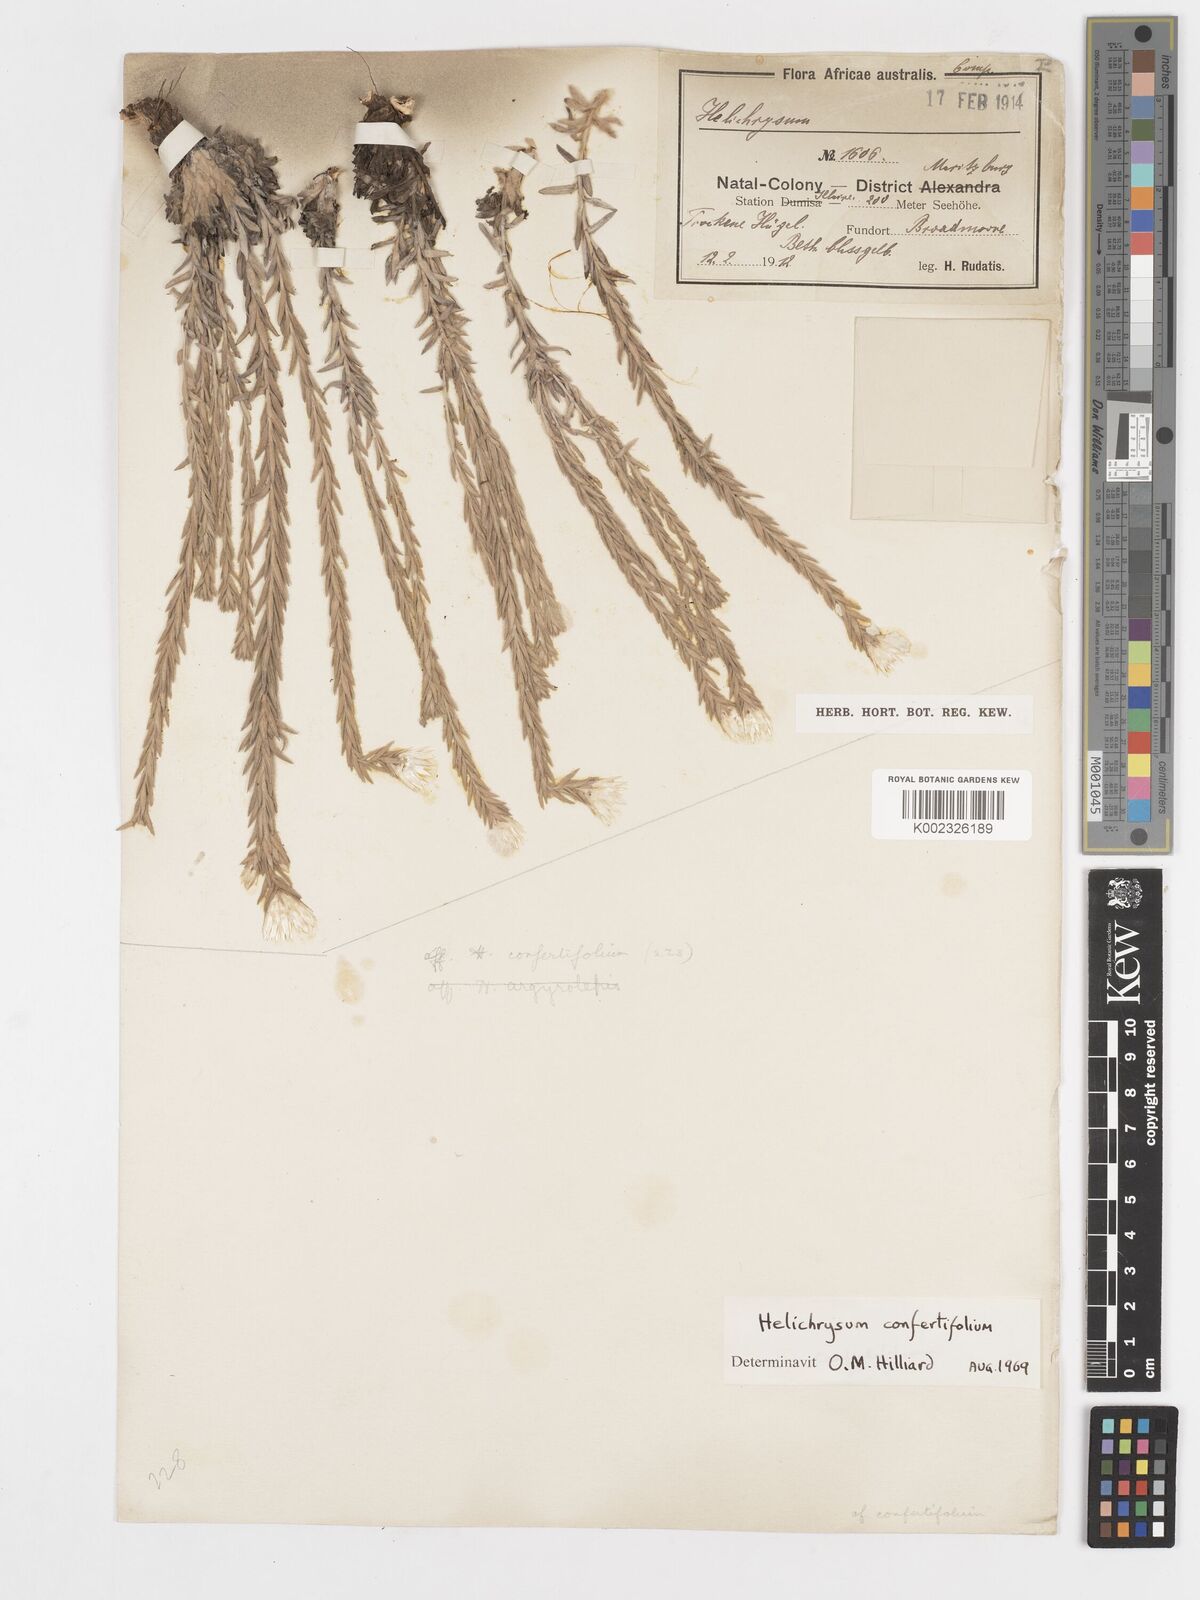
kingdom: Plantae
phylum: Tracheophyta
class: Magnoliopsida
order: Asterales
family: Asteraceae
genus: Helichrysum
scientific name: Helichrysum confertifolium
